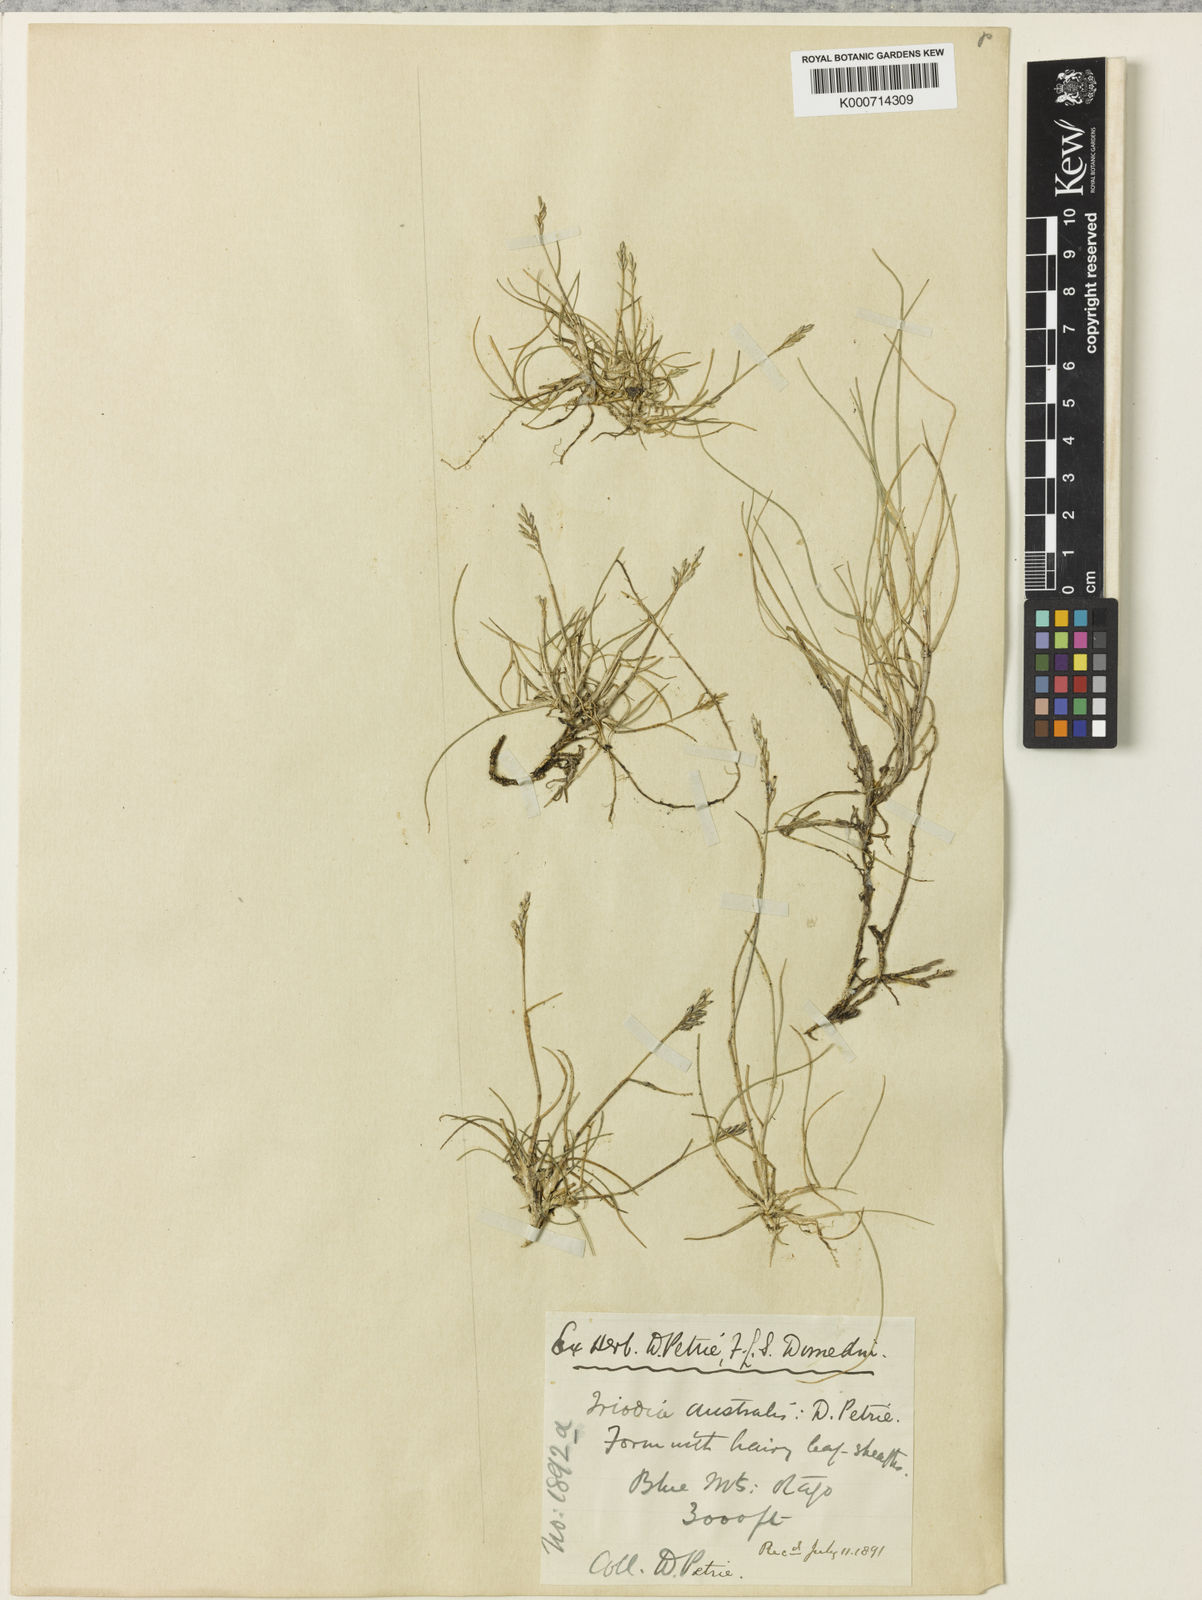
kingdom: Plantae
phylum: Tracheophyta
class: Liliopsida
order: Poales
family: Poaceae
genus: Rytidosperma
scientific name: Rytidosperma australe
